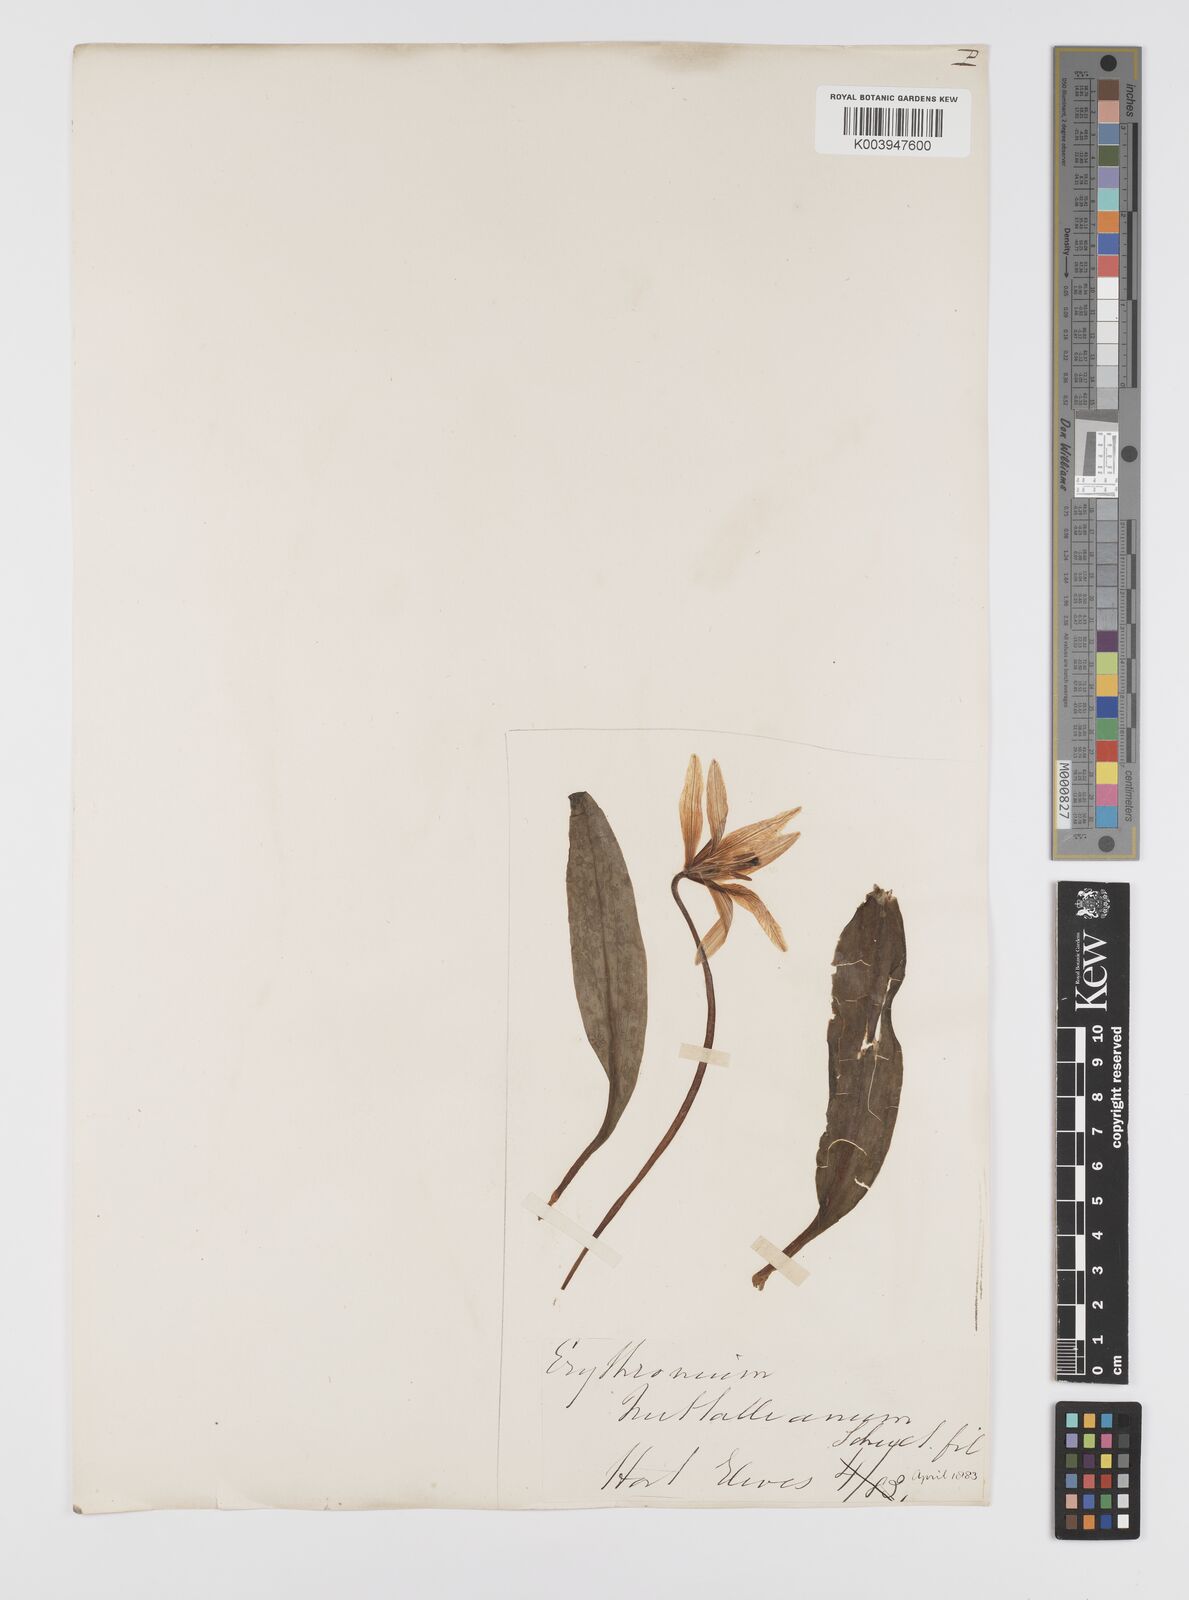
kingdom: Plantae
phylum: Tracheophyta
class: Liliopsida
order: Liliales
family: Liliaceae
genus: Erythronium
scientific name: Erythronium grandiflorum
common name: Avalanche-lily
